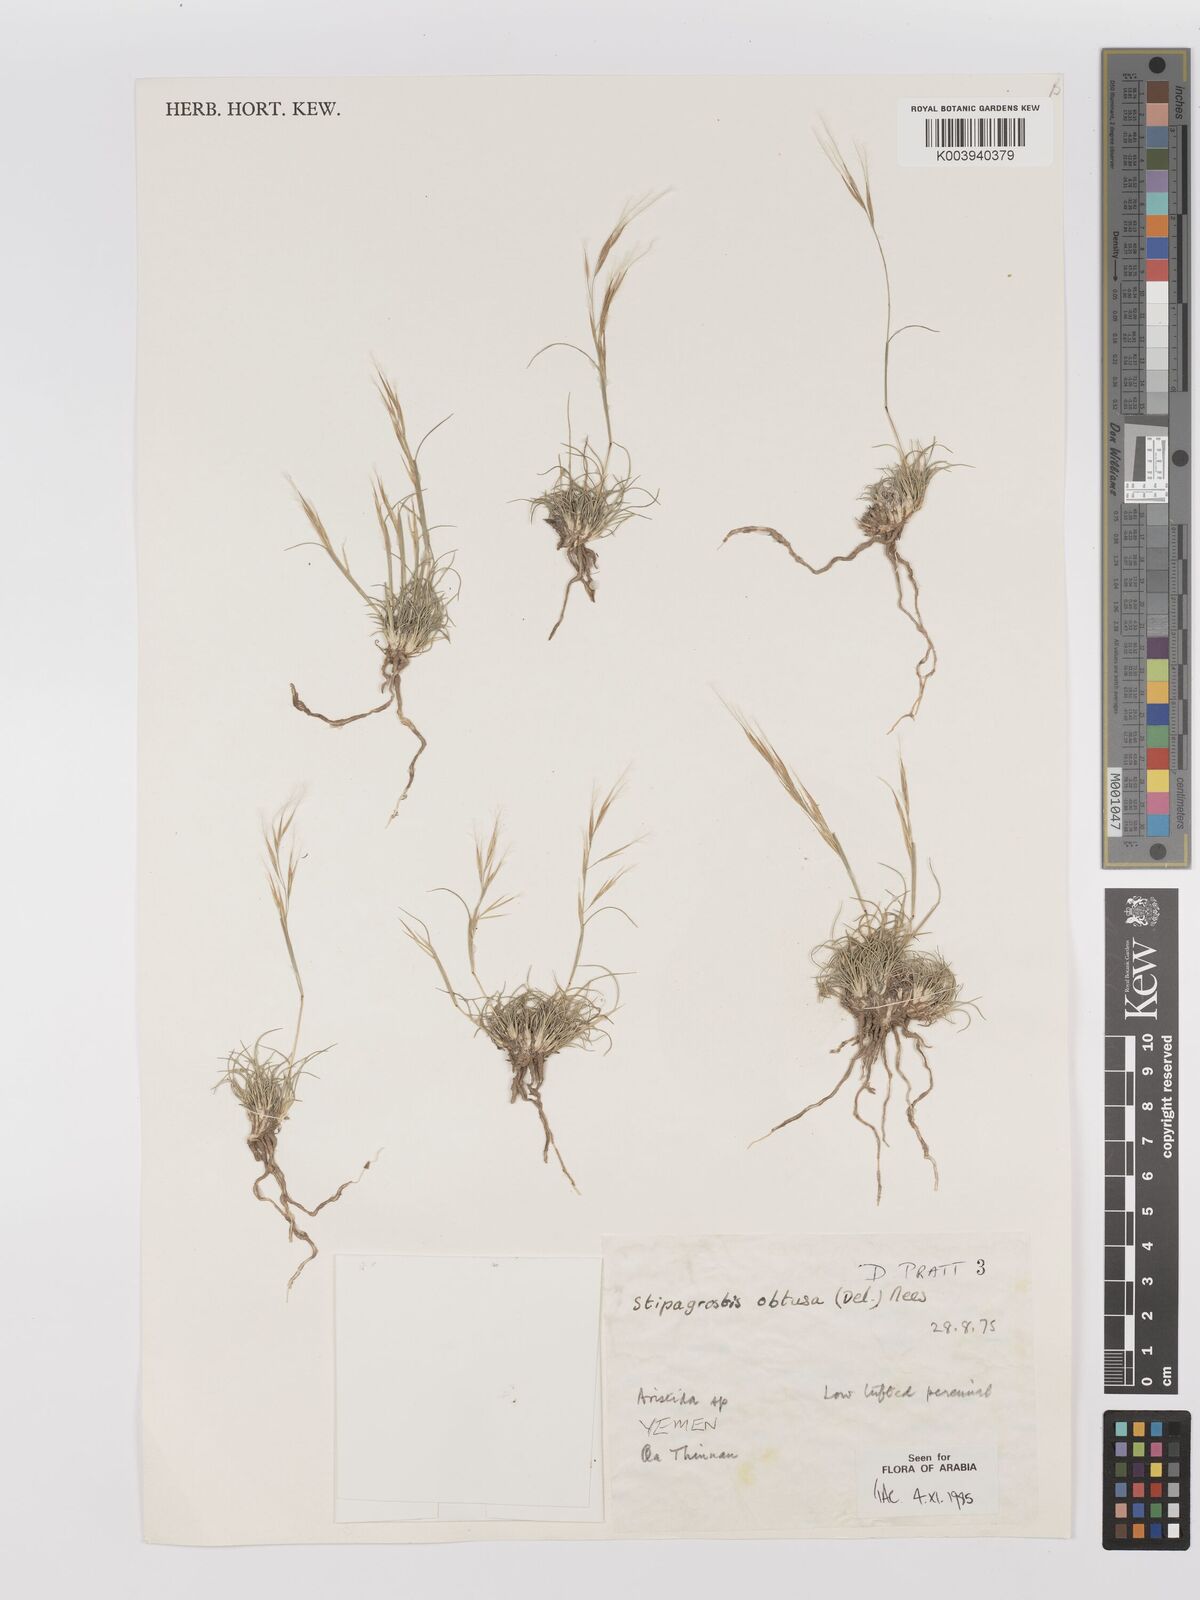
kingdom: Plantae
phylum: Tracheophyta
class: Liliopsida
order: Poales
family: Poaceae
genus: Stipagrostis
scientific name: Stipagrostis obtusa
